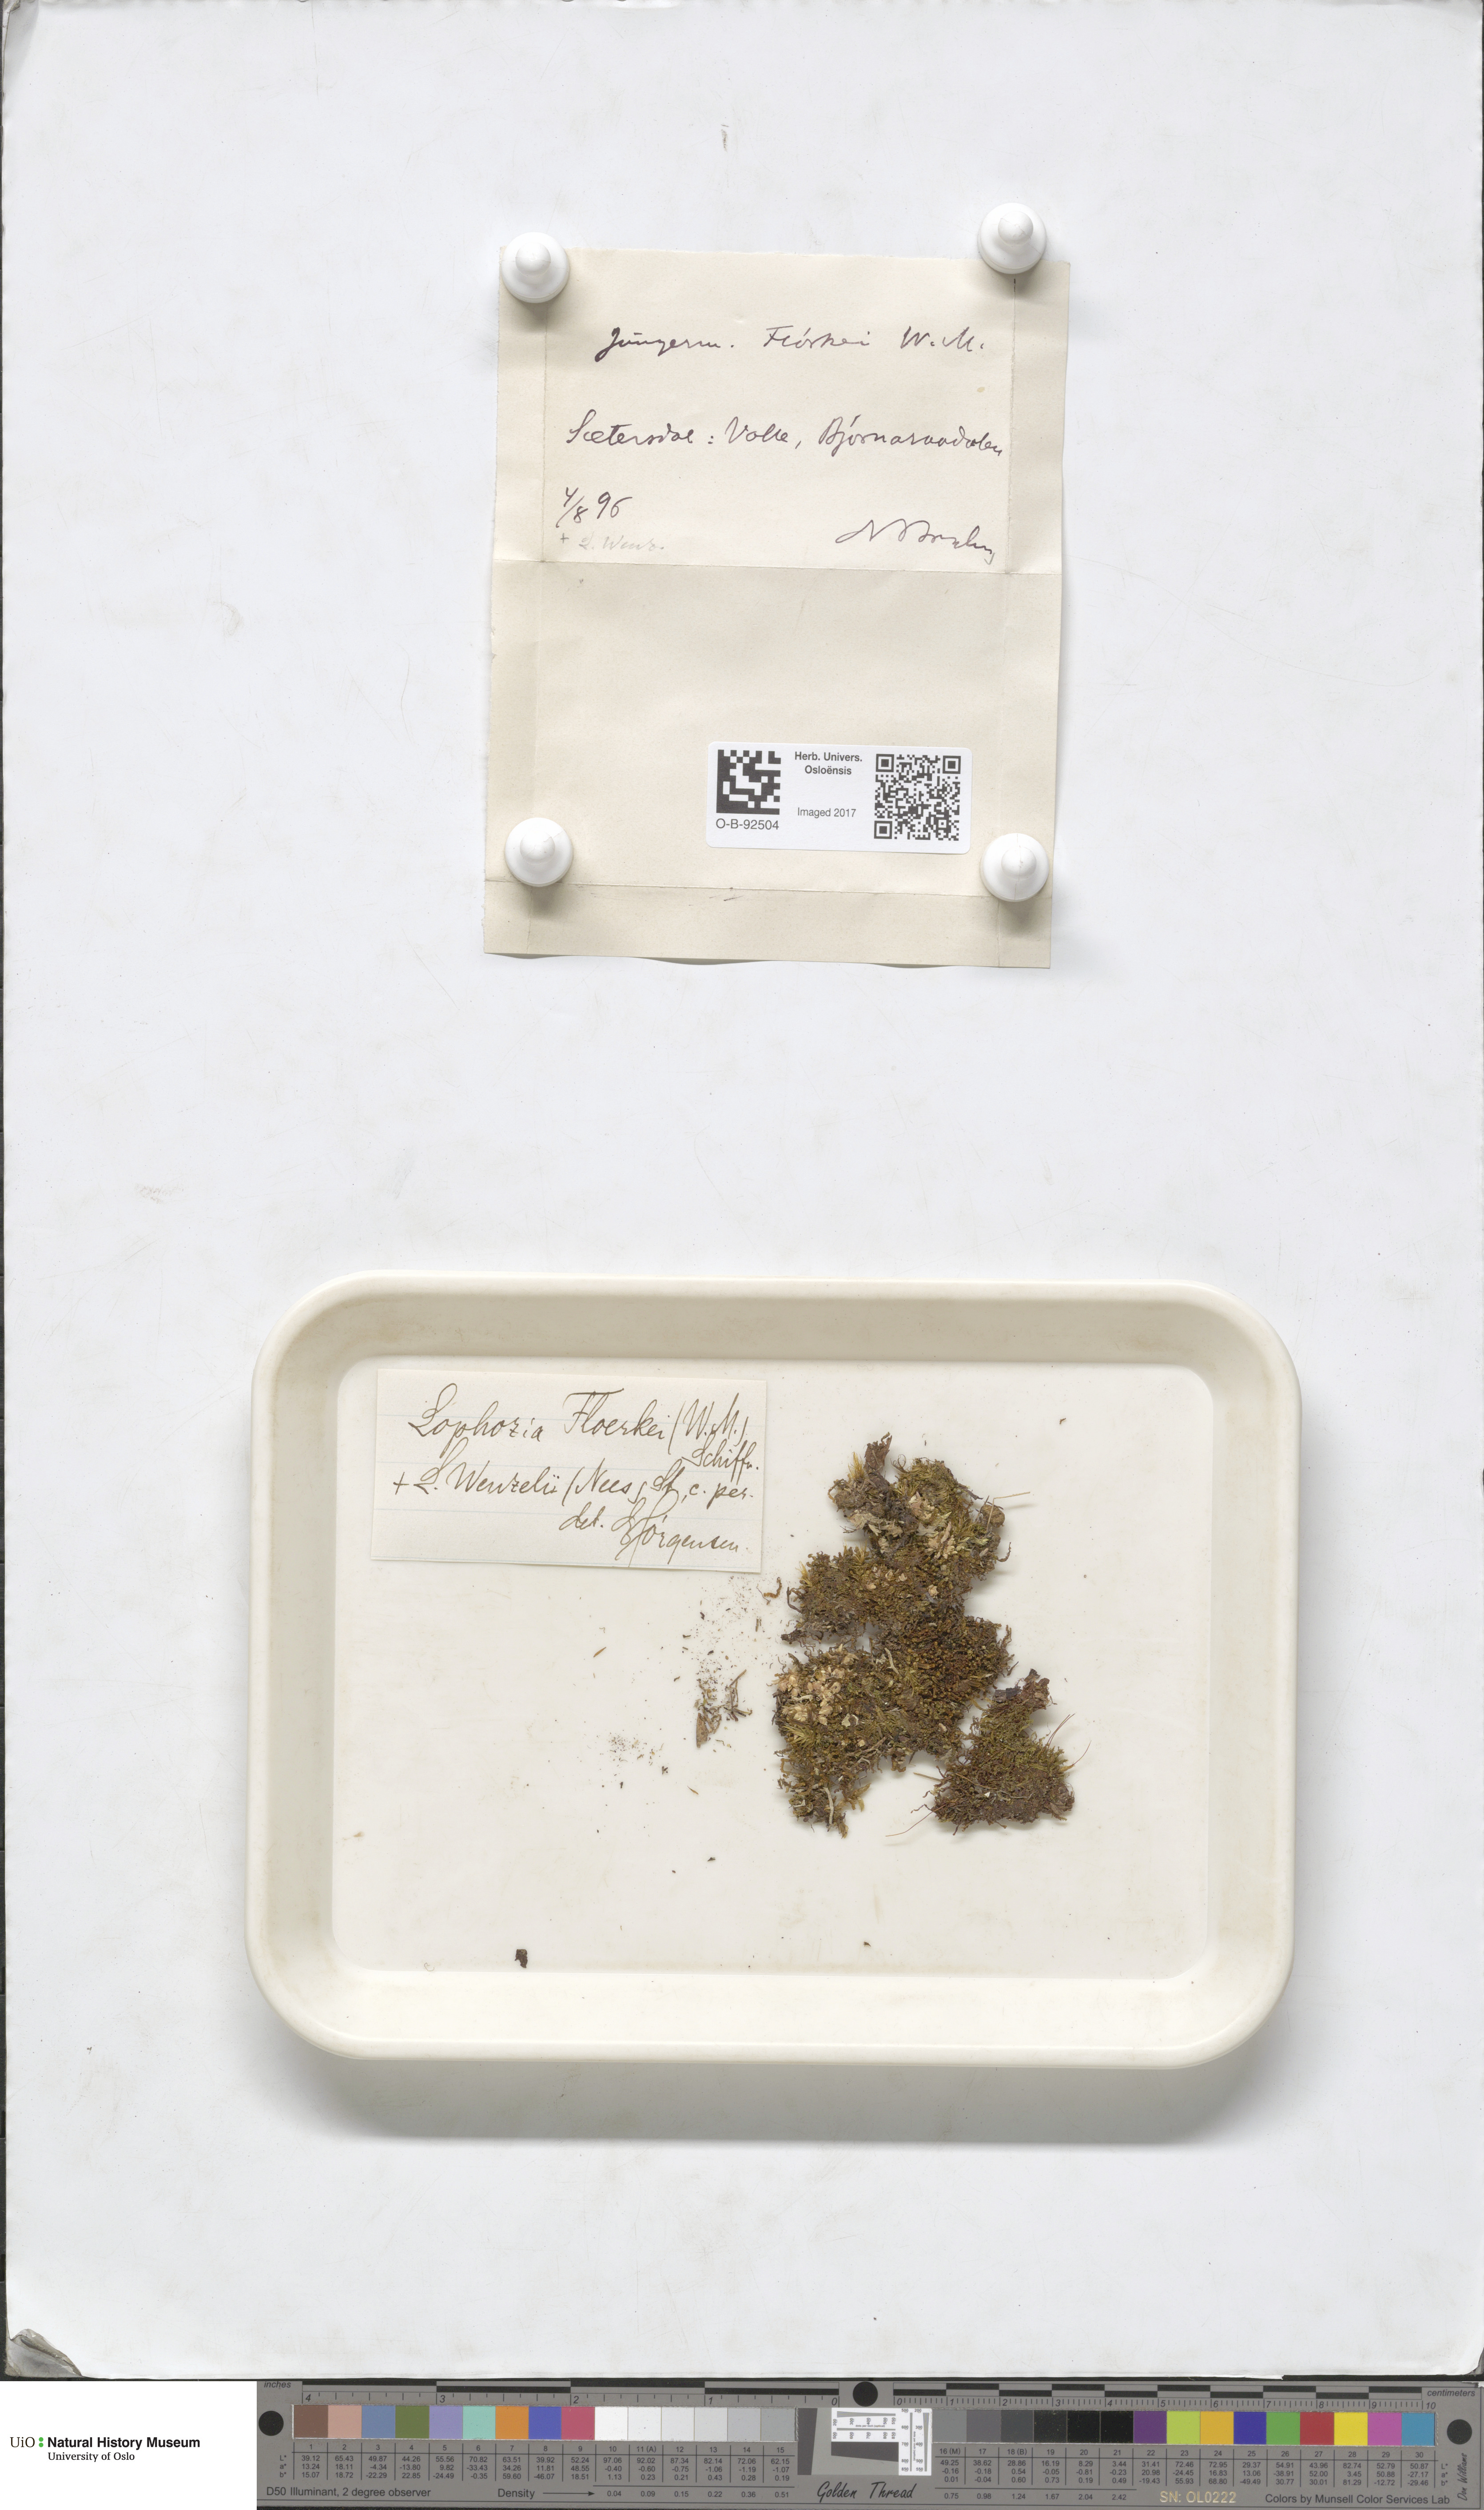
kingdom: Plantae
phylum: Marchantiophyta
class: Jungermanniopsida
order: Jungermanniales
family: Lophoziaceae
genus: Lophozia
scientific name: Lophozia wenzelii
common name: Wenzel s notchwort
